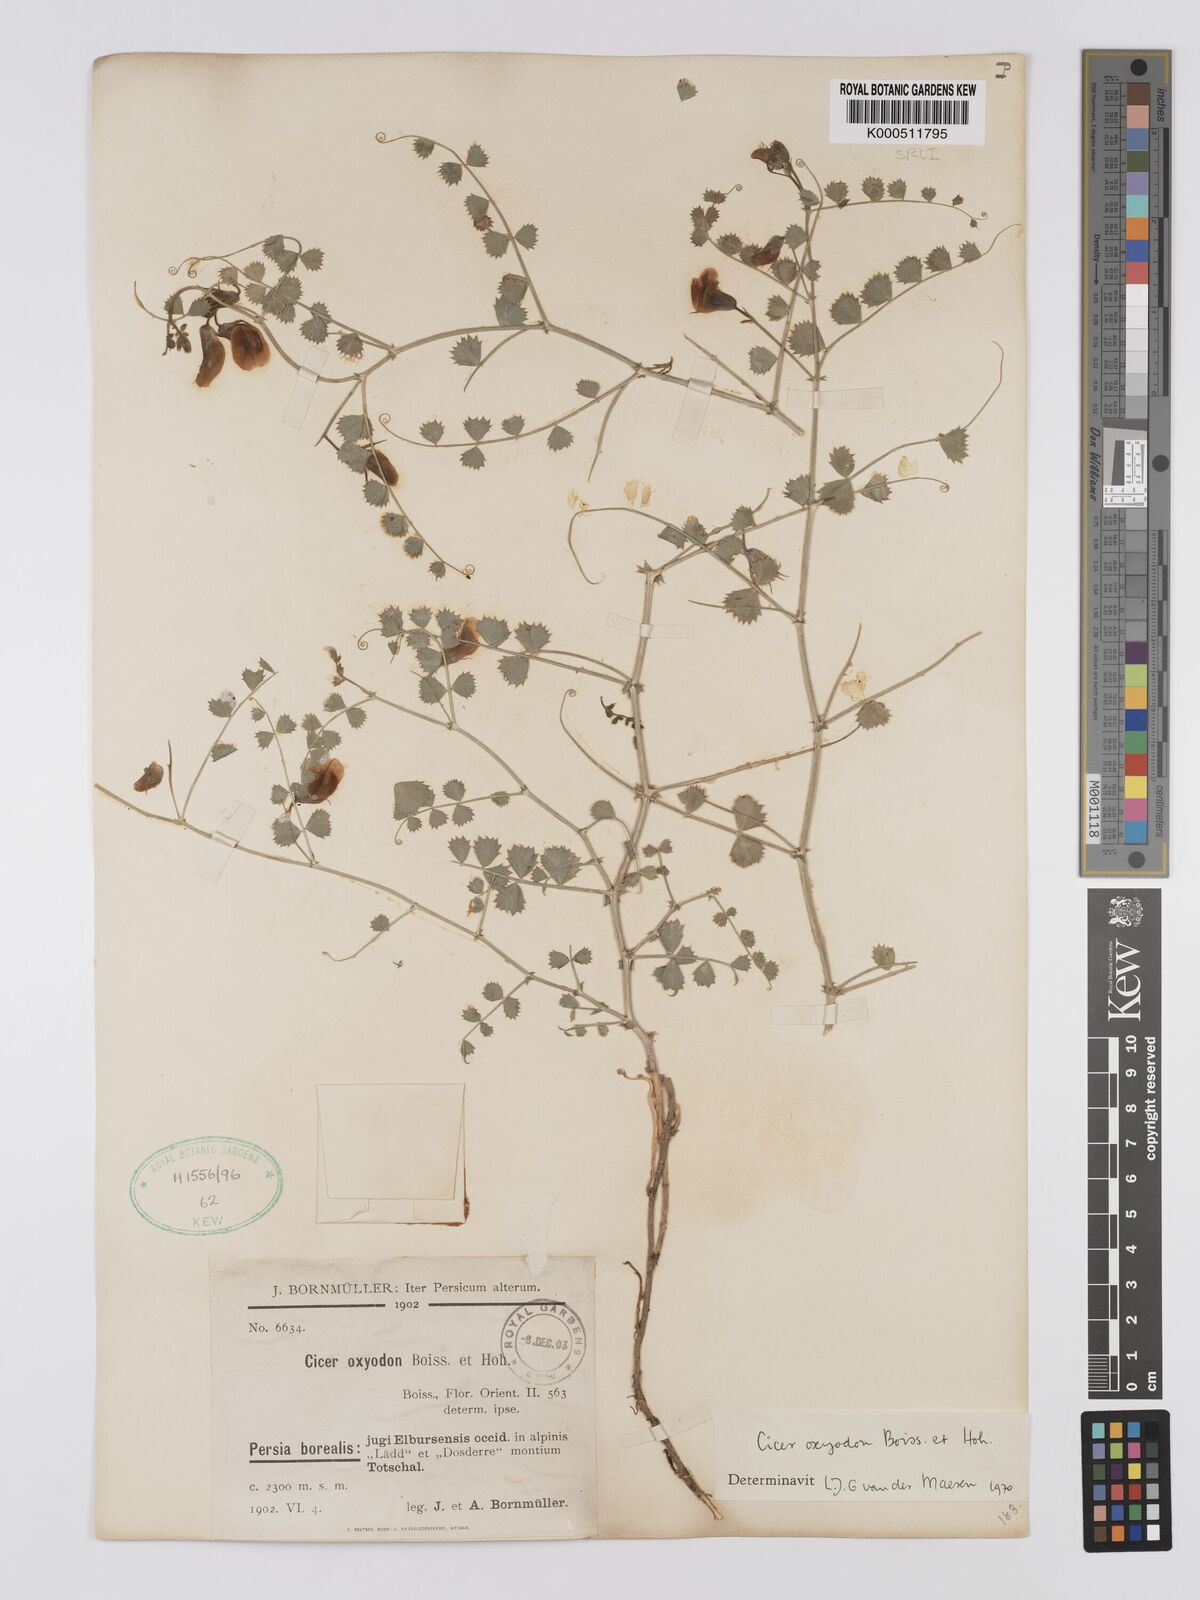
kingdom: Plantae
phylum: Tracheophyta
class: Magnoliopsida
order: Fabales
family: Fabaceae
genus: Cicer
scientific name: Cicer oxyodon
